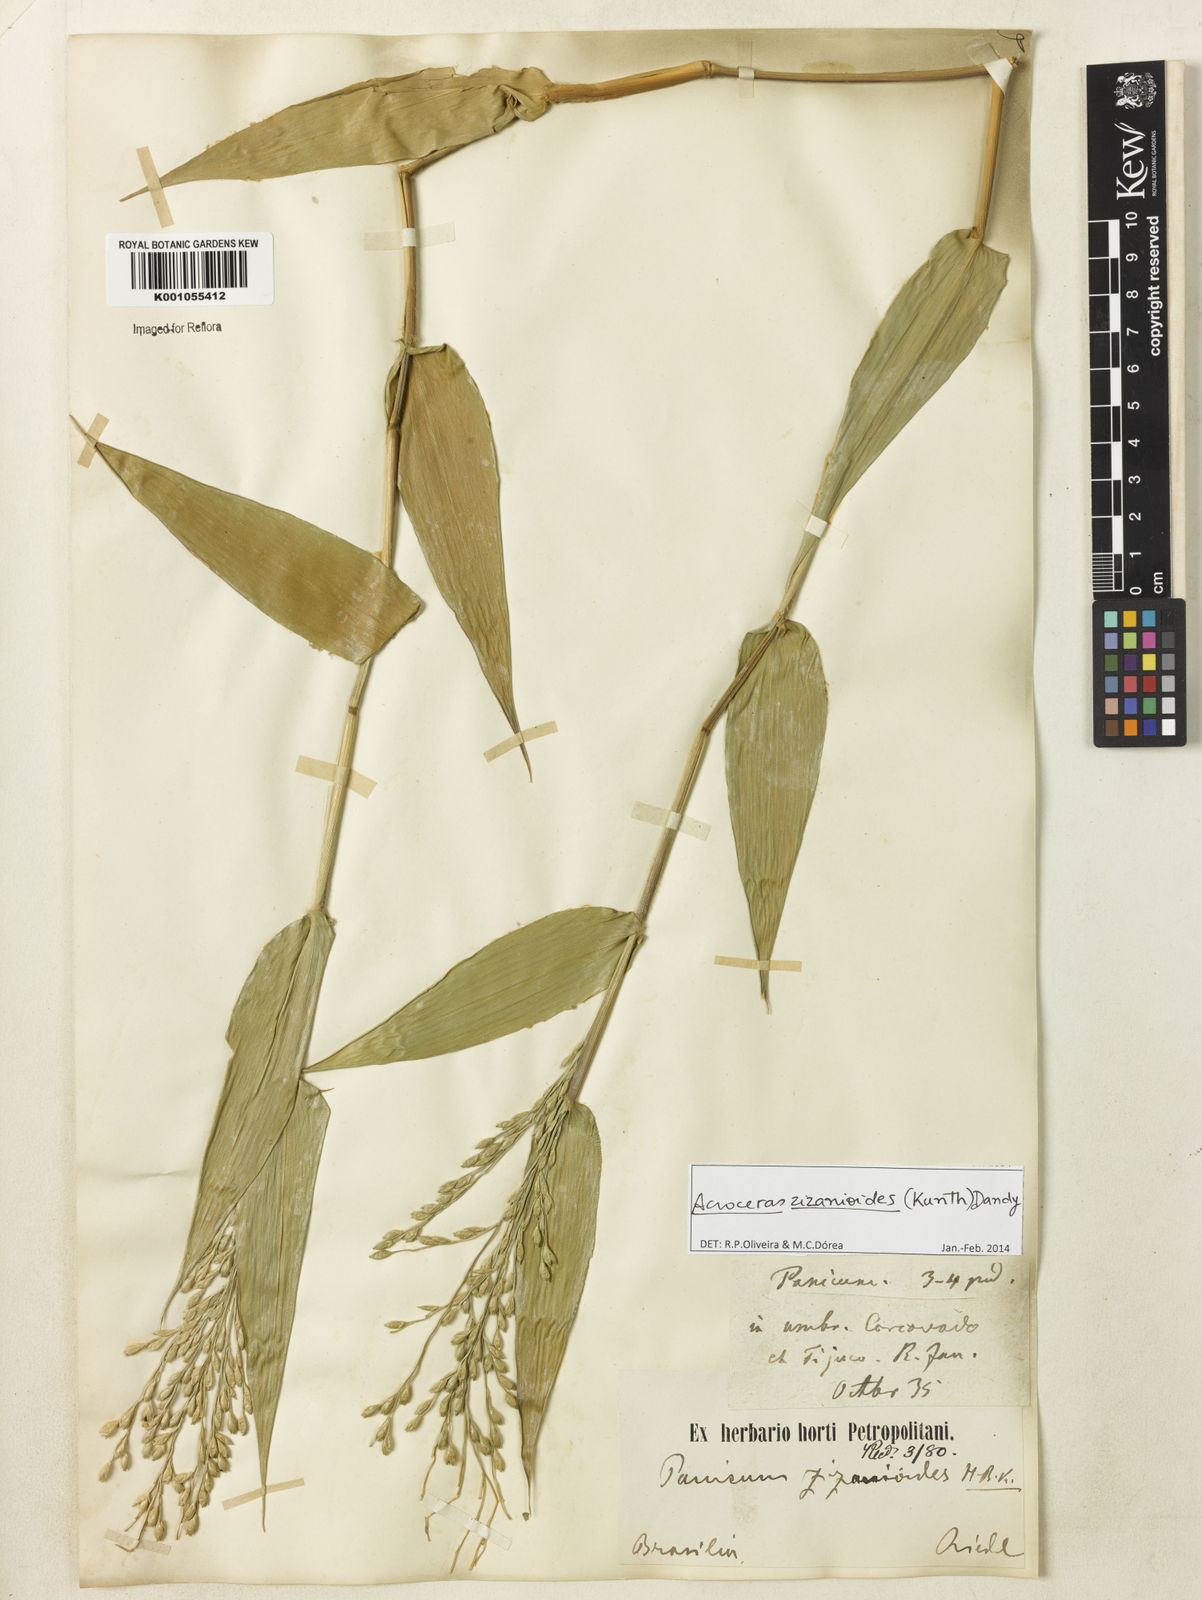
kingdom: Plantae
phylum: Tracheophyta
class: Liliopsida
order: Poales
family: Poaceae
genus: Acroceras
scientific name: Acroceras zizanioides
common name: Oat grass
